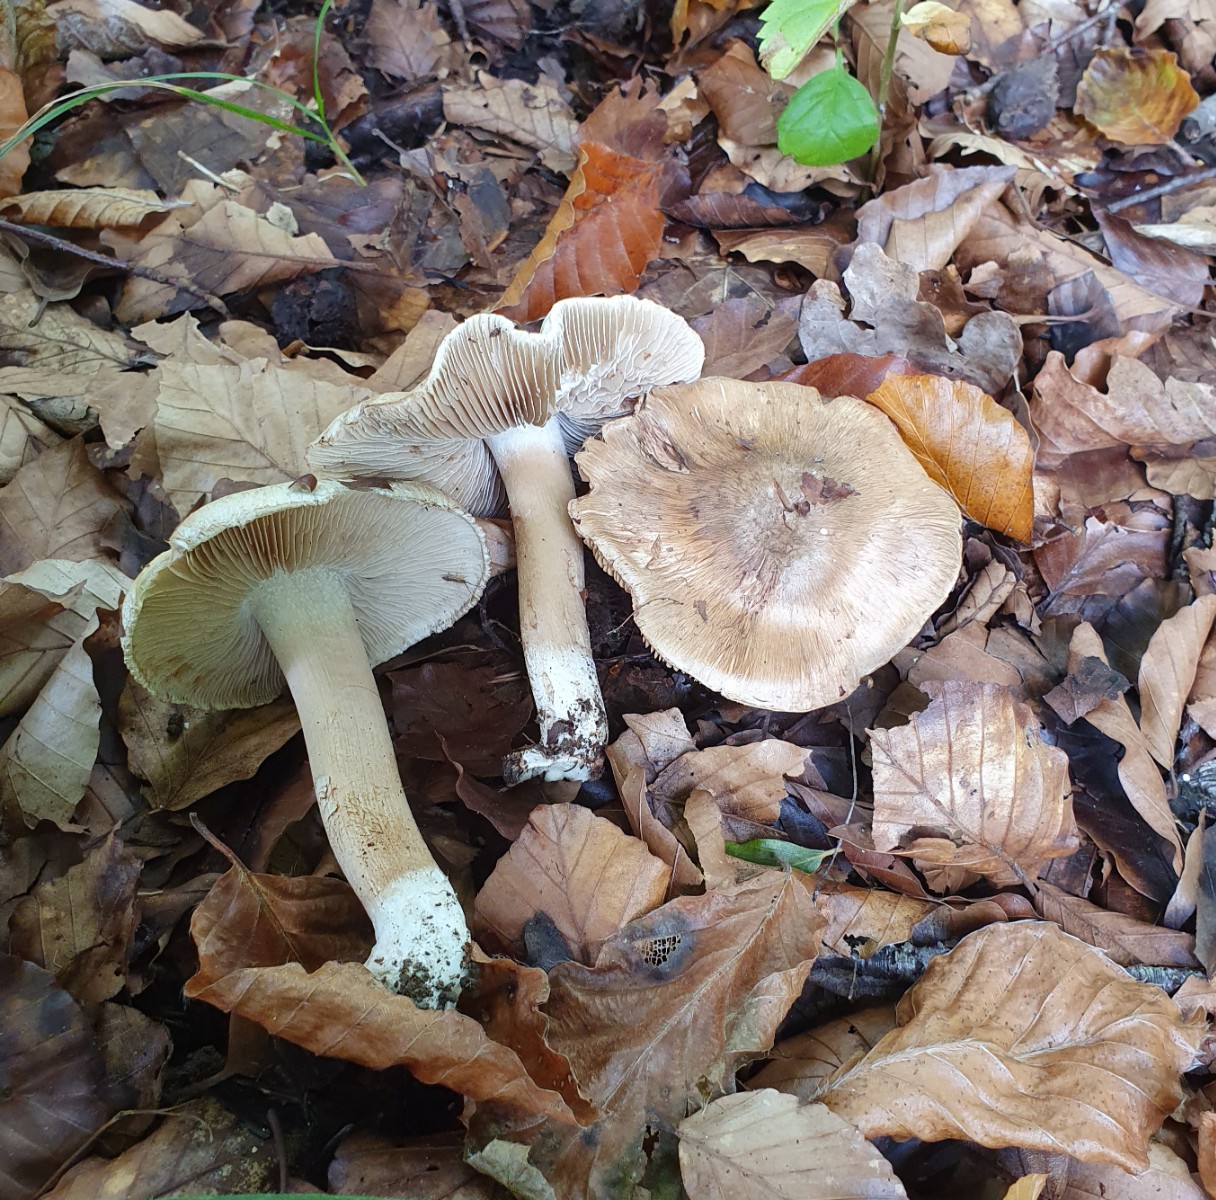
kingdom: Fungi
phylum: Basidiomycota
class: Agaricomycetes
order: Agaricales
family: Inocybaceae
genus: Inocybe
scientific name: Inocybe fraudans
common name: pæreduftende trævlhat
